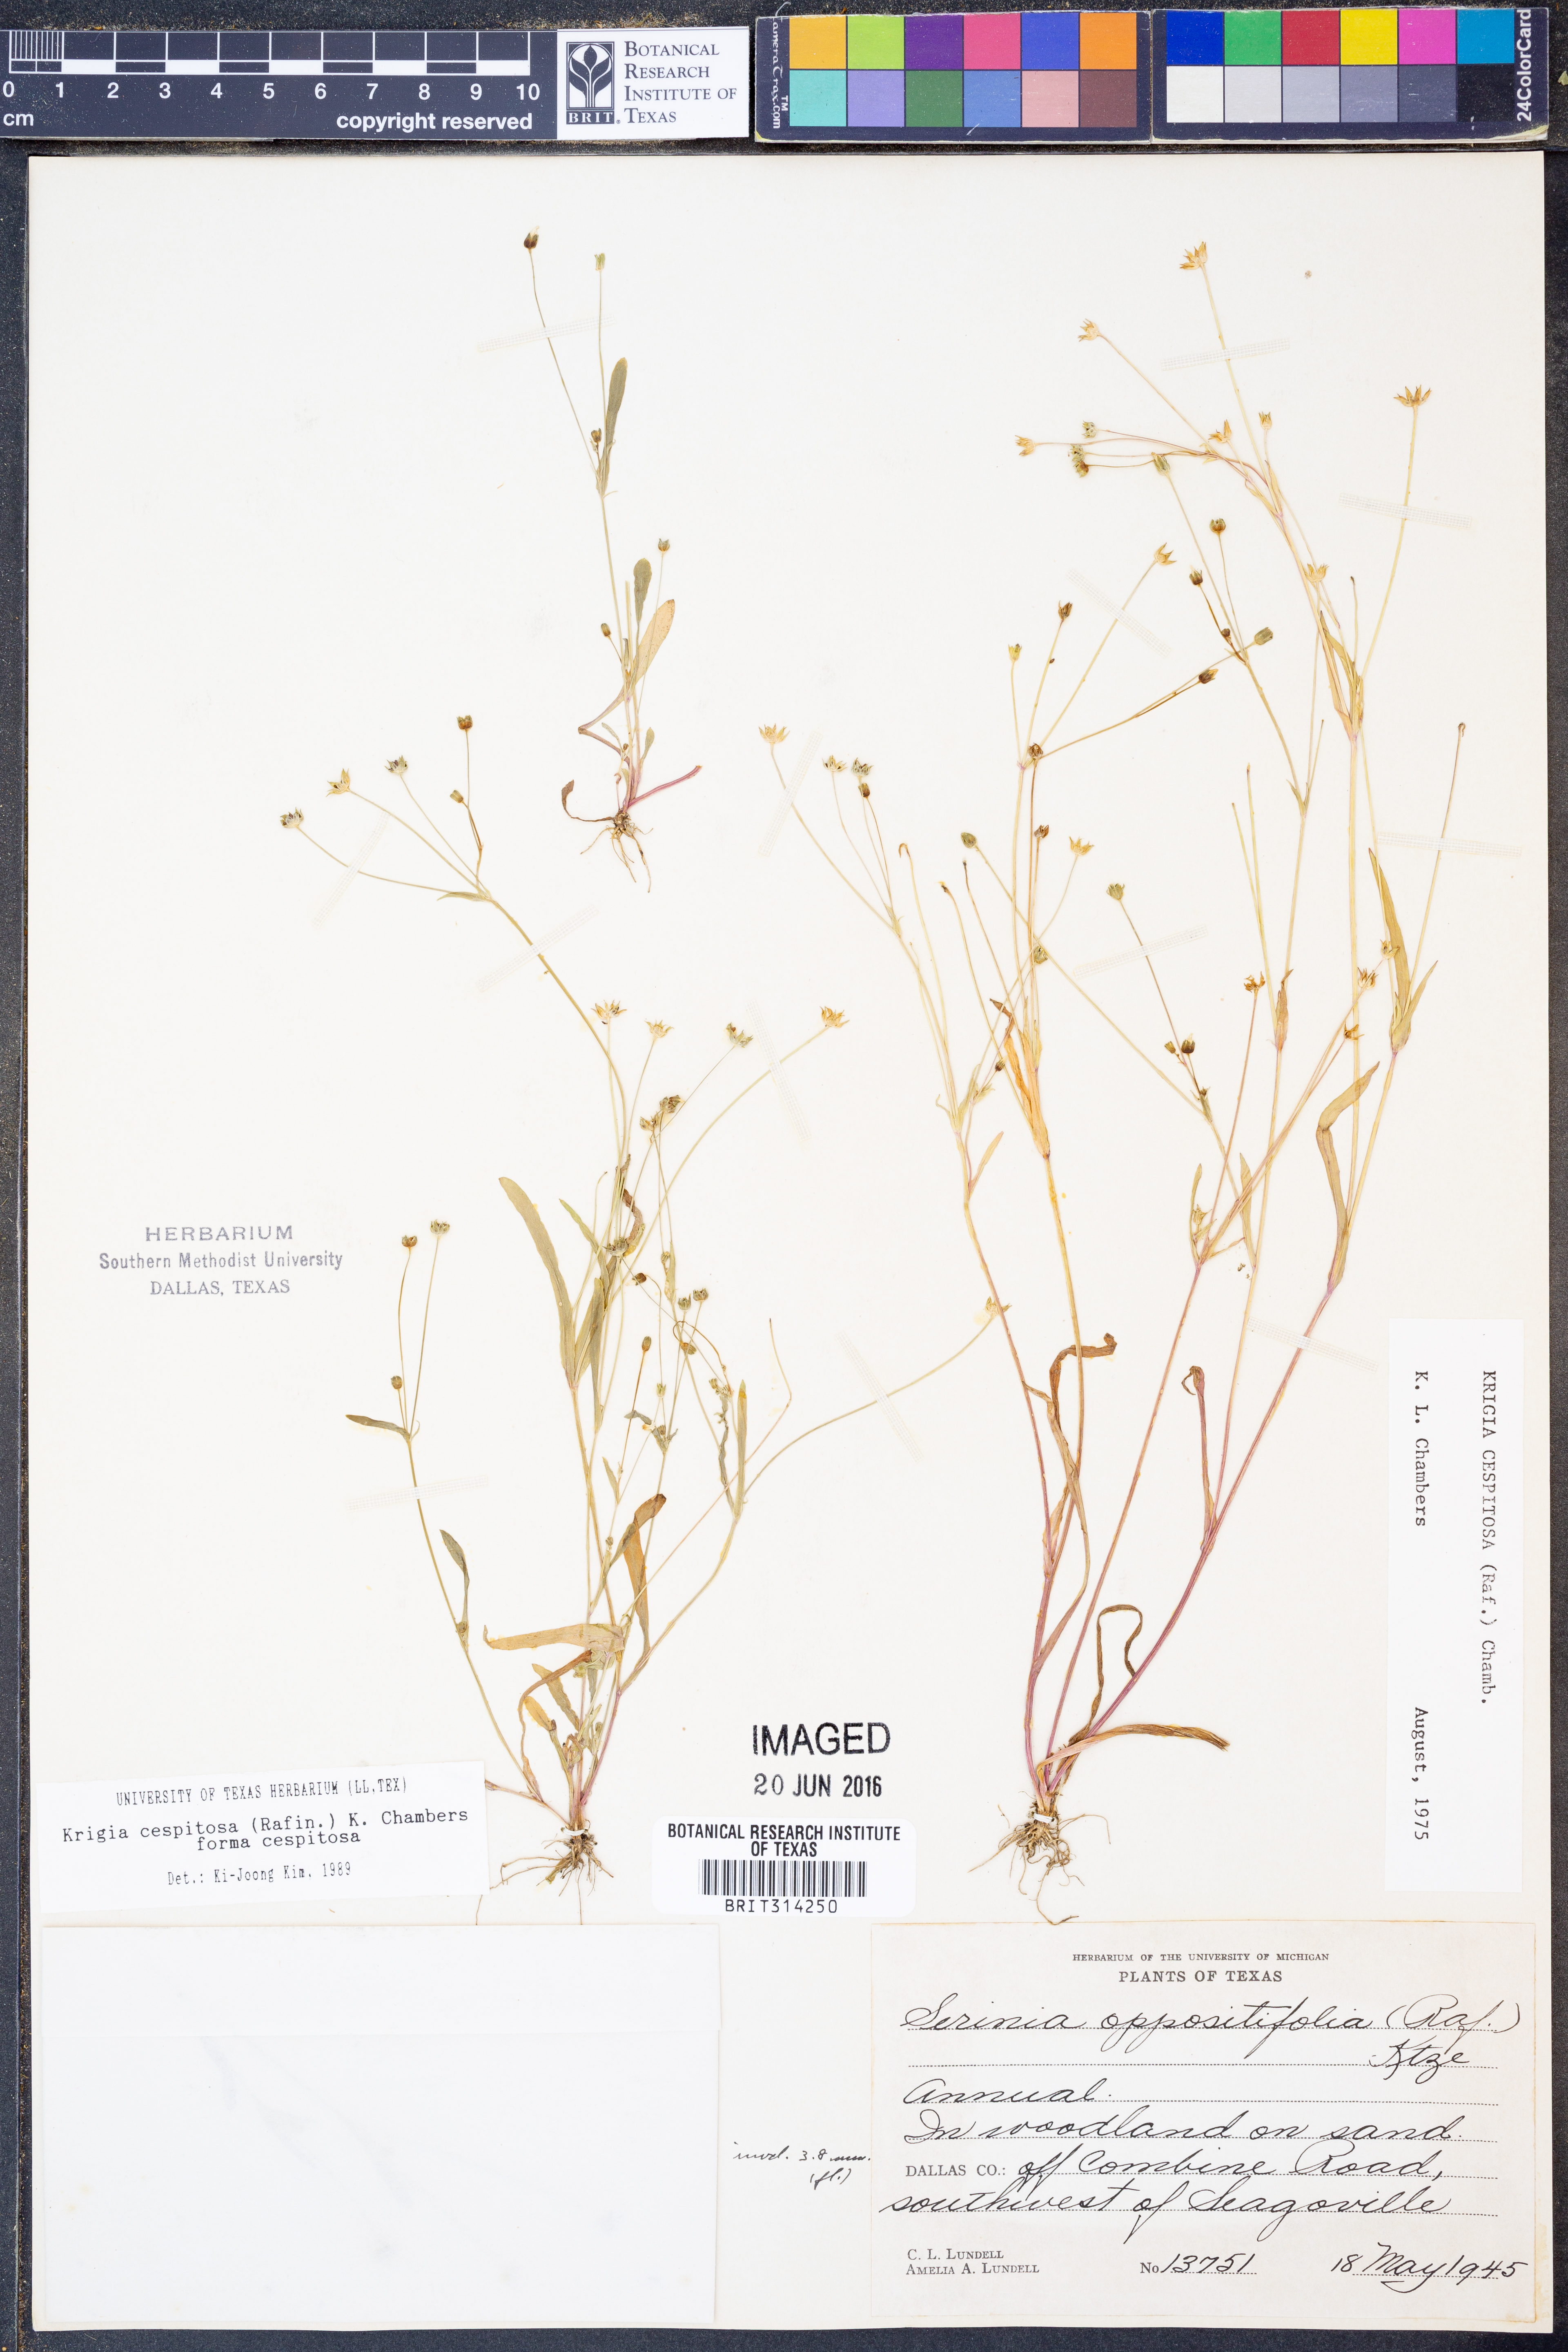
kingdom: Plantae
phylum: Tracheophyta
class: Magnoliopsida
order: Asterales
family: Asteraceae
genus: Krigia
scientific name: Krigia cespitosa
